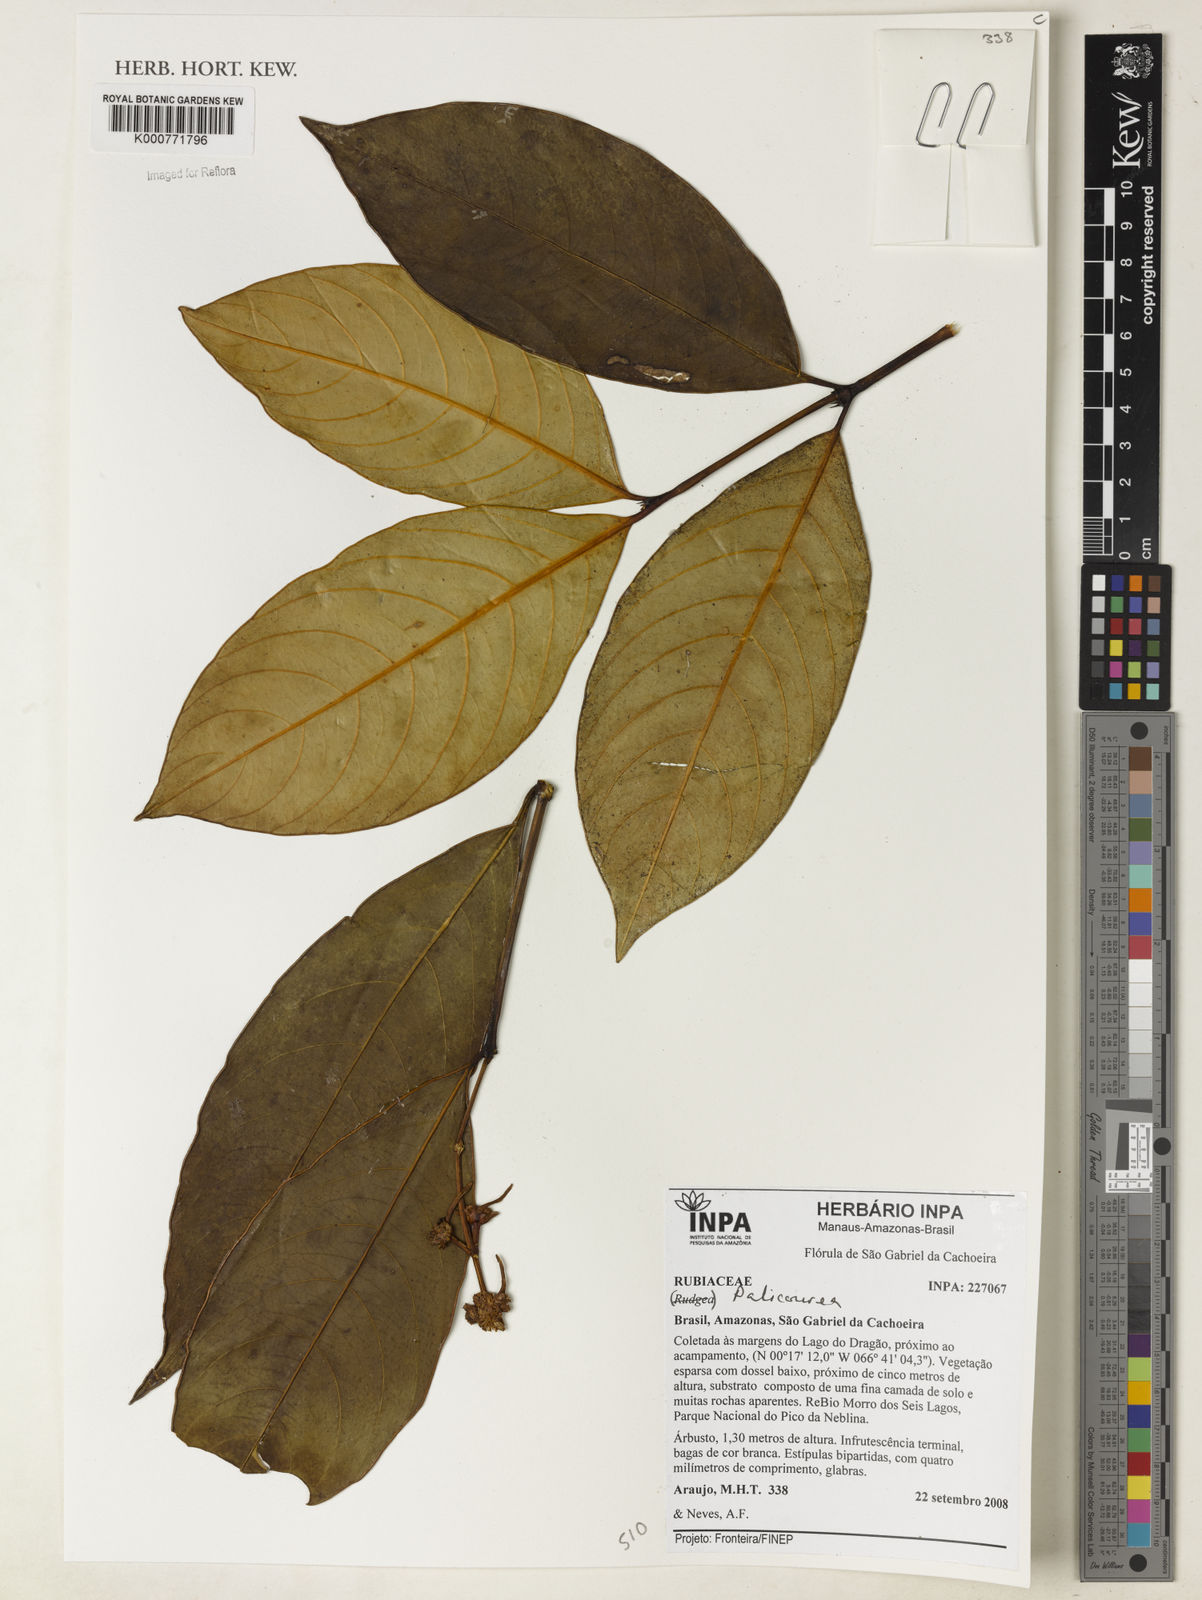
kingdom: Plantae
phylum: Tracheophyta
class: Magnoliopsida
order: Gentianales
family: Rubiaceae
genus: Palicourea
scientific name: Palicourea
